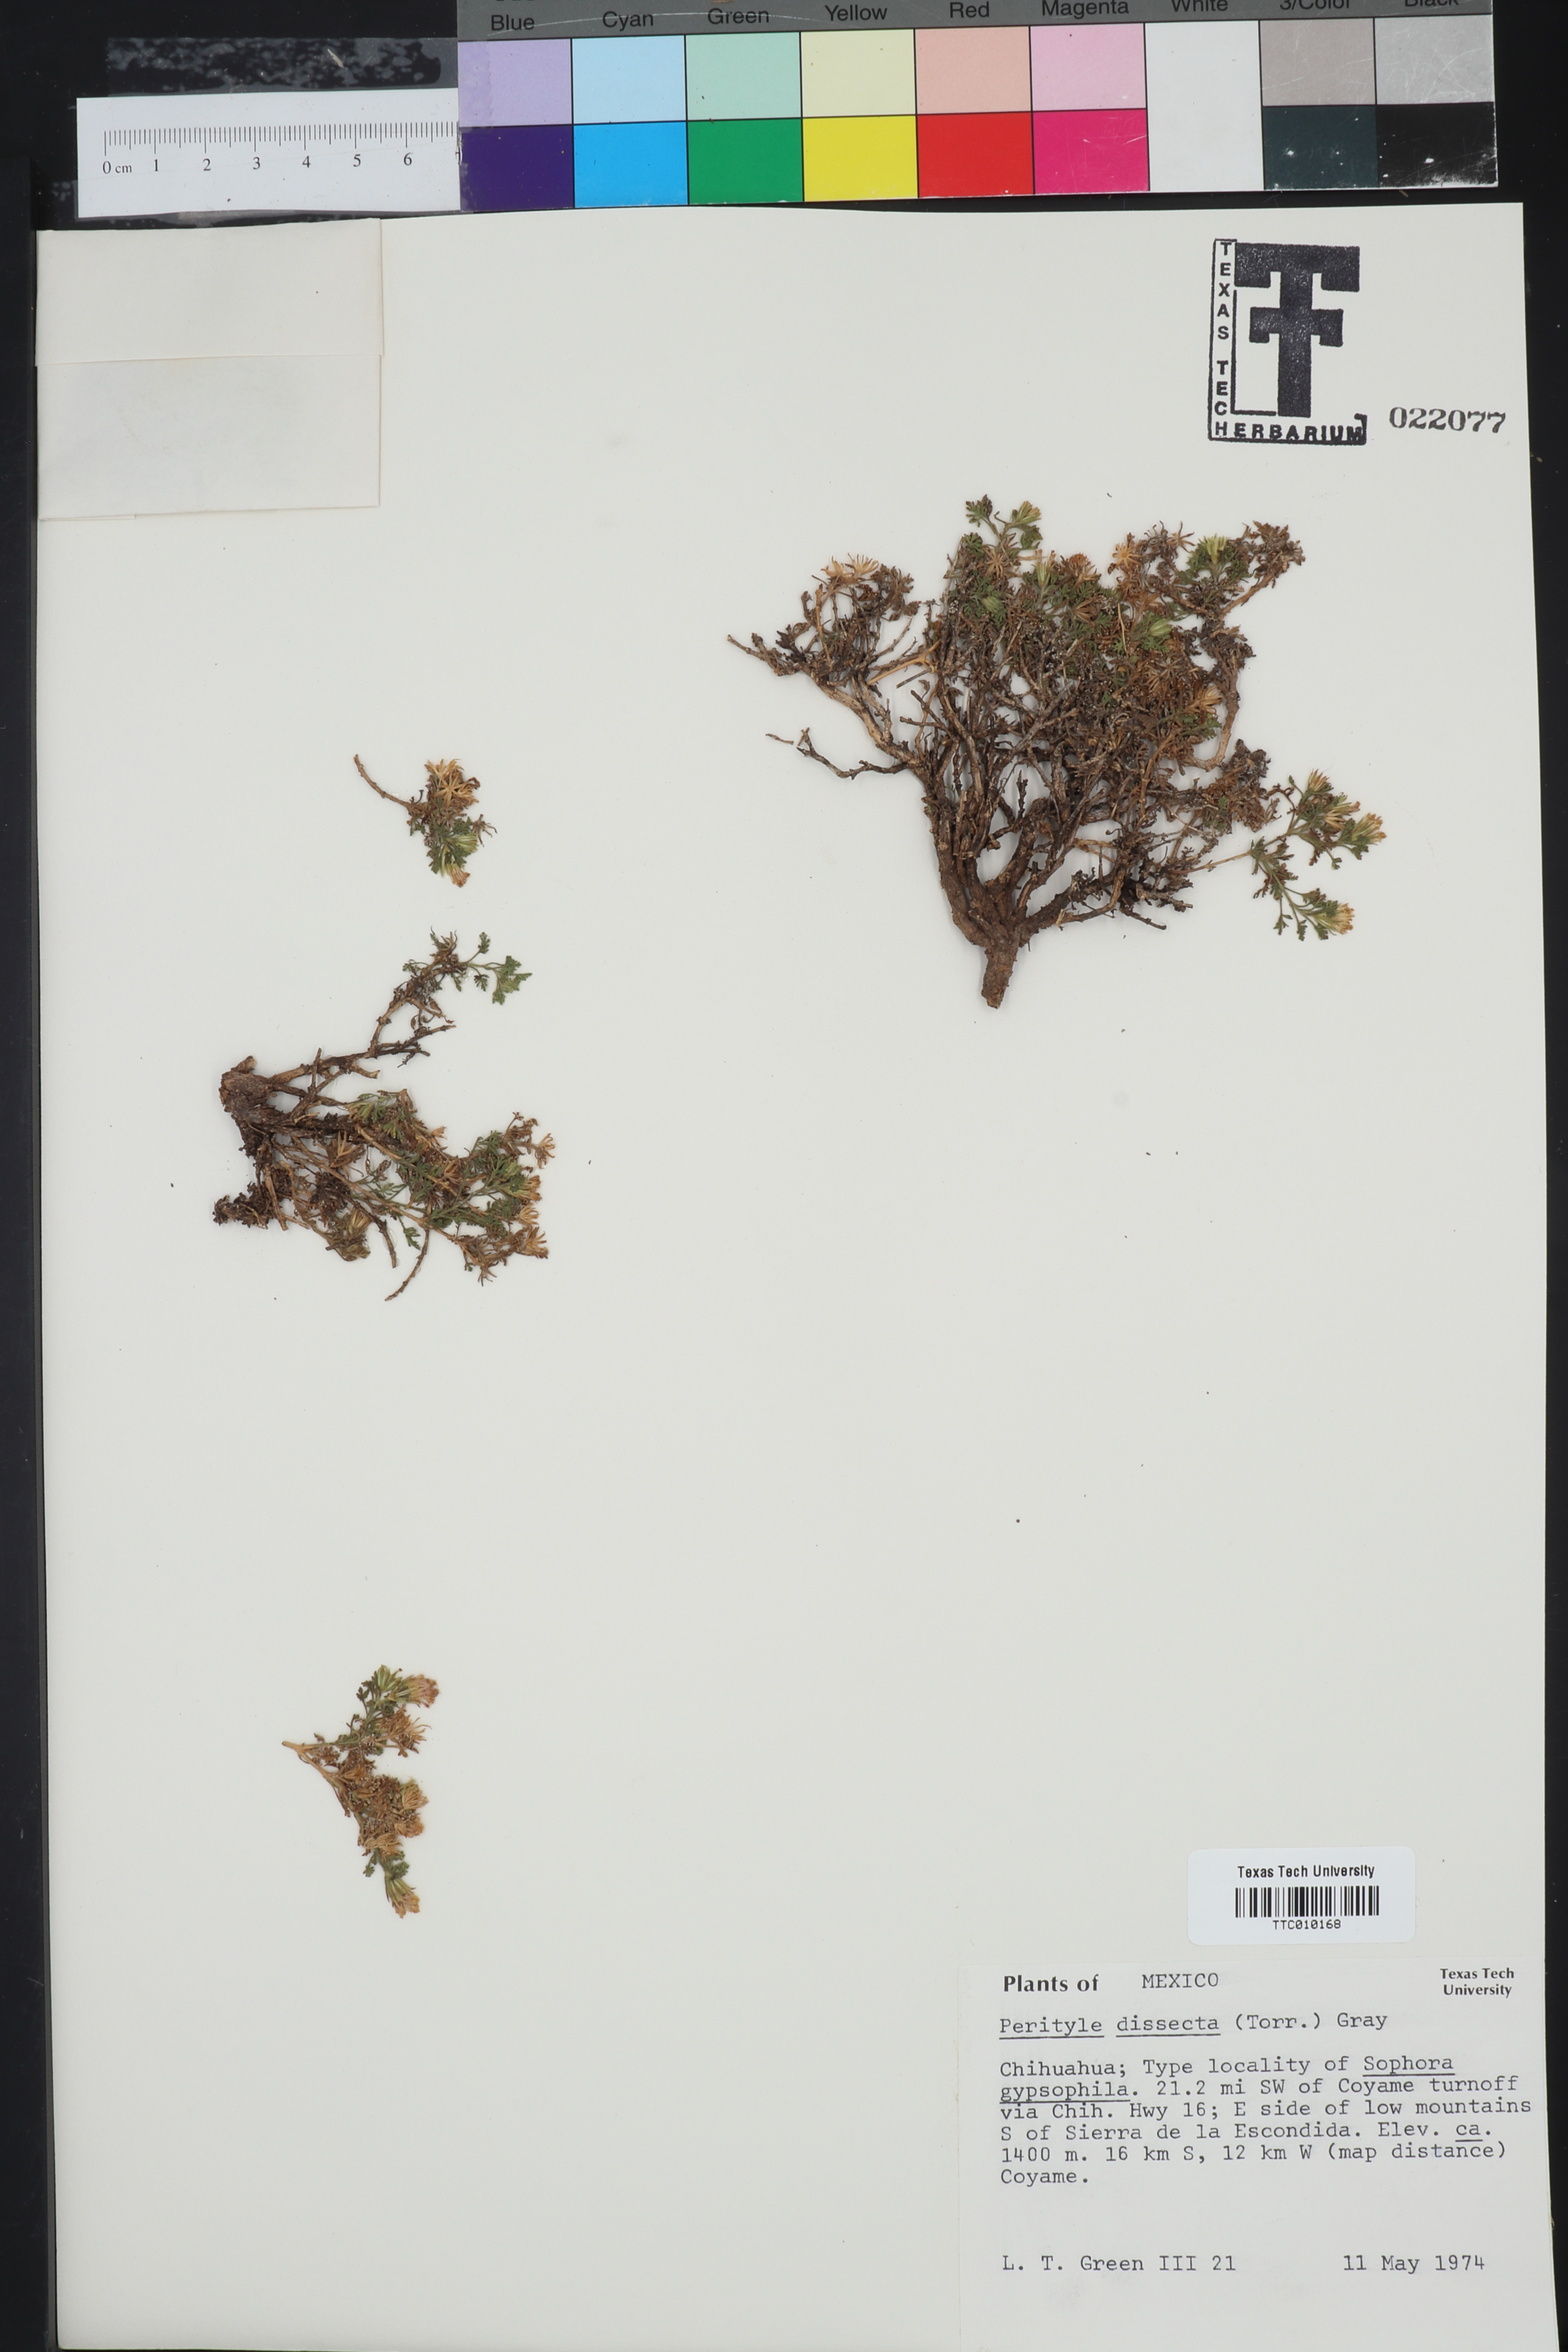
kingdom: Plantae
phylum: Tracheophyta
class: Magnoliopsida
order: Asterales
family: Asteraceae
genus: Laphamia
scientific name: Laphamia dissecta
